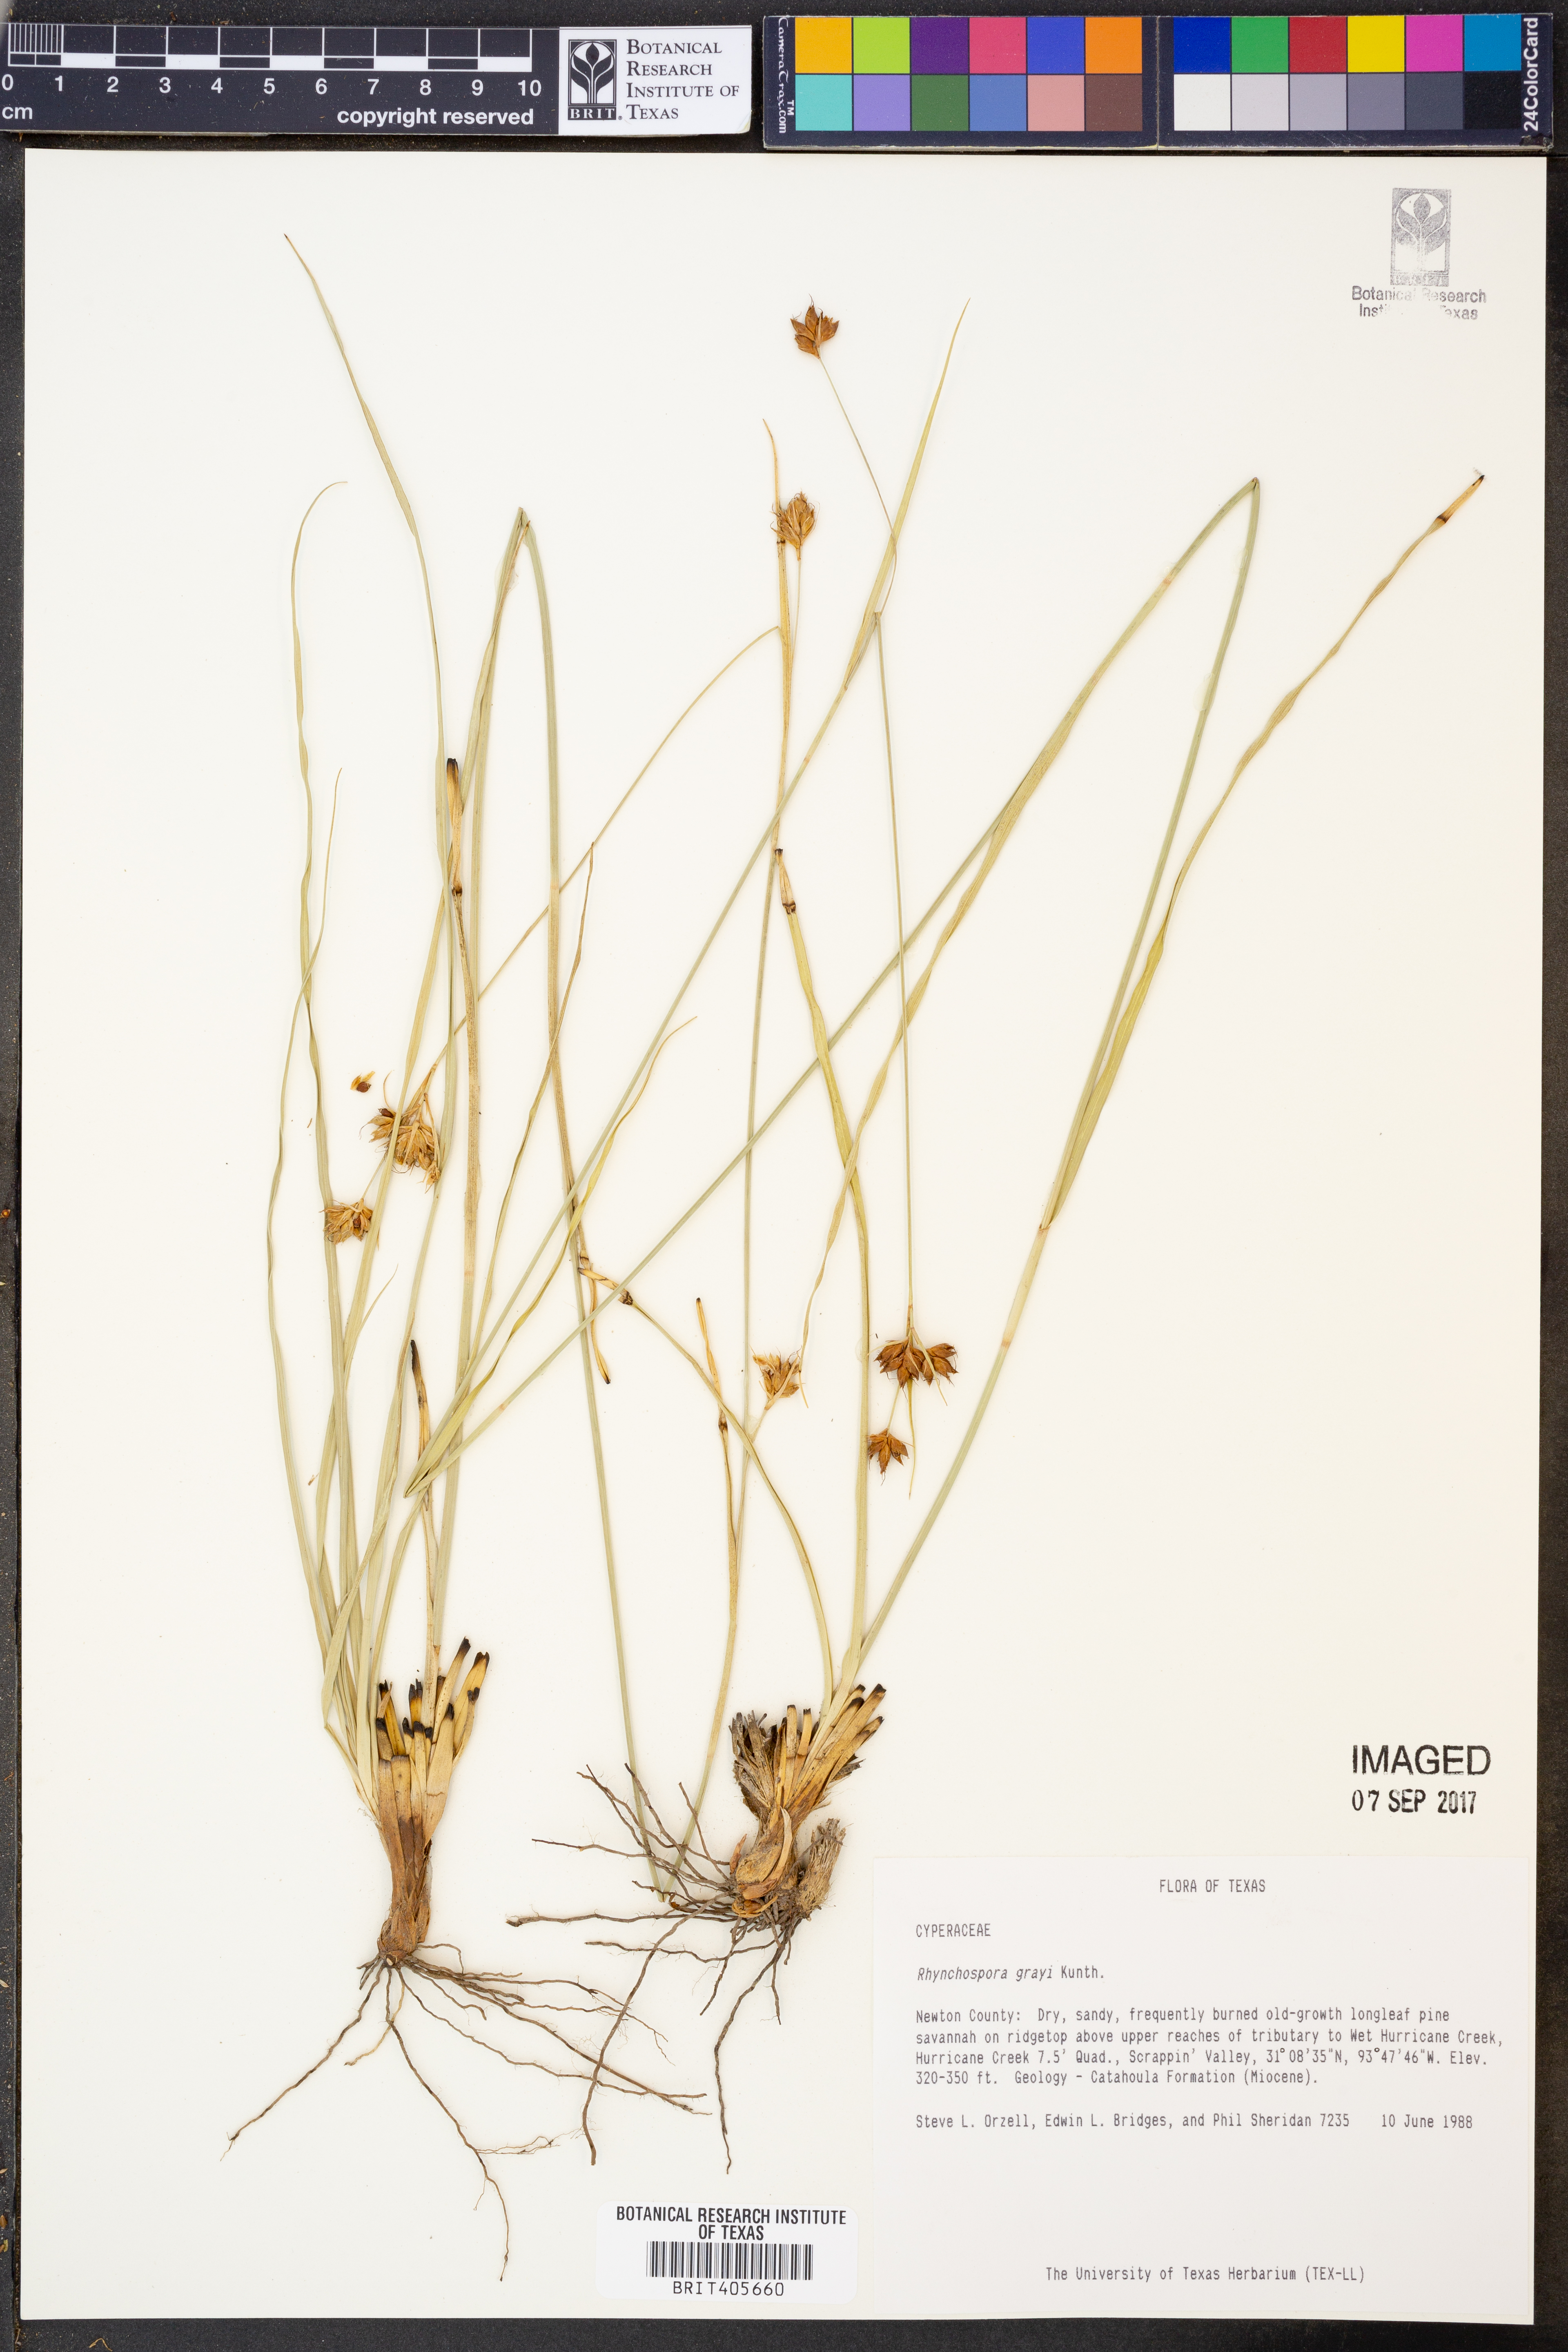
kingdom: Plantae
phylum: Tracheophyta
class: Liliopsida
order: Poales
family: Cyperaceae
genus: Rhynchospora
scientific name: Rhynchospora grayi
